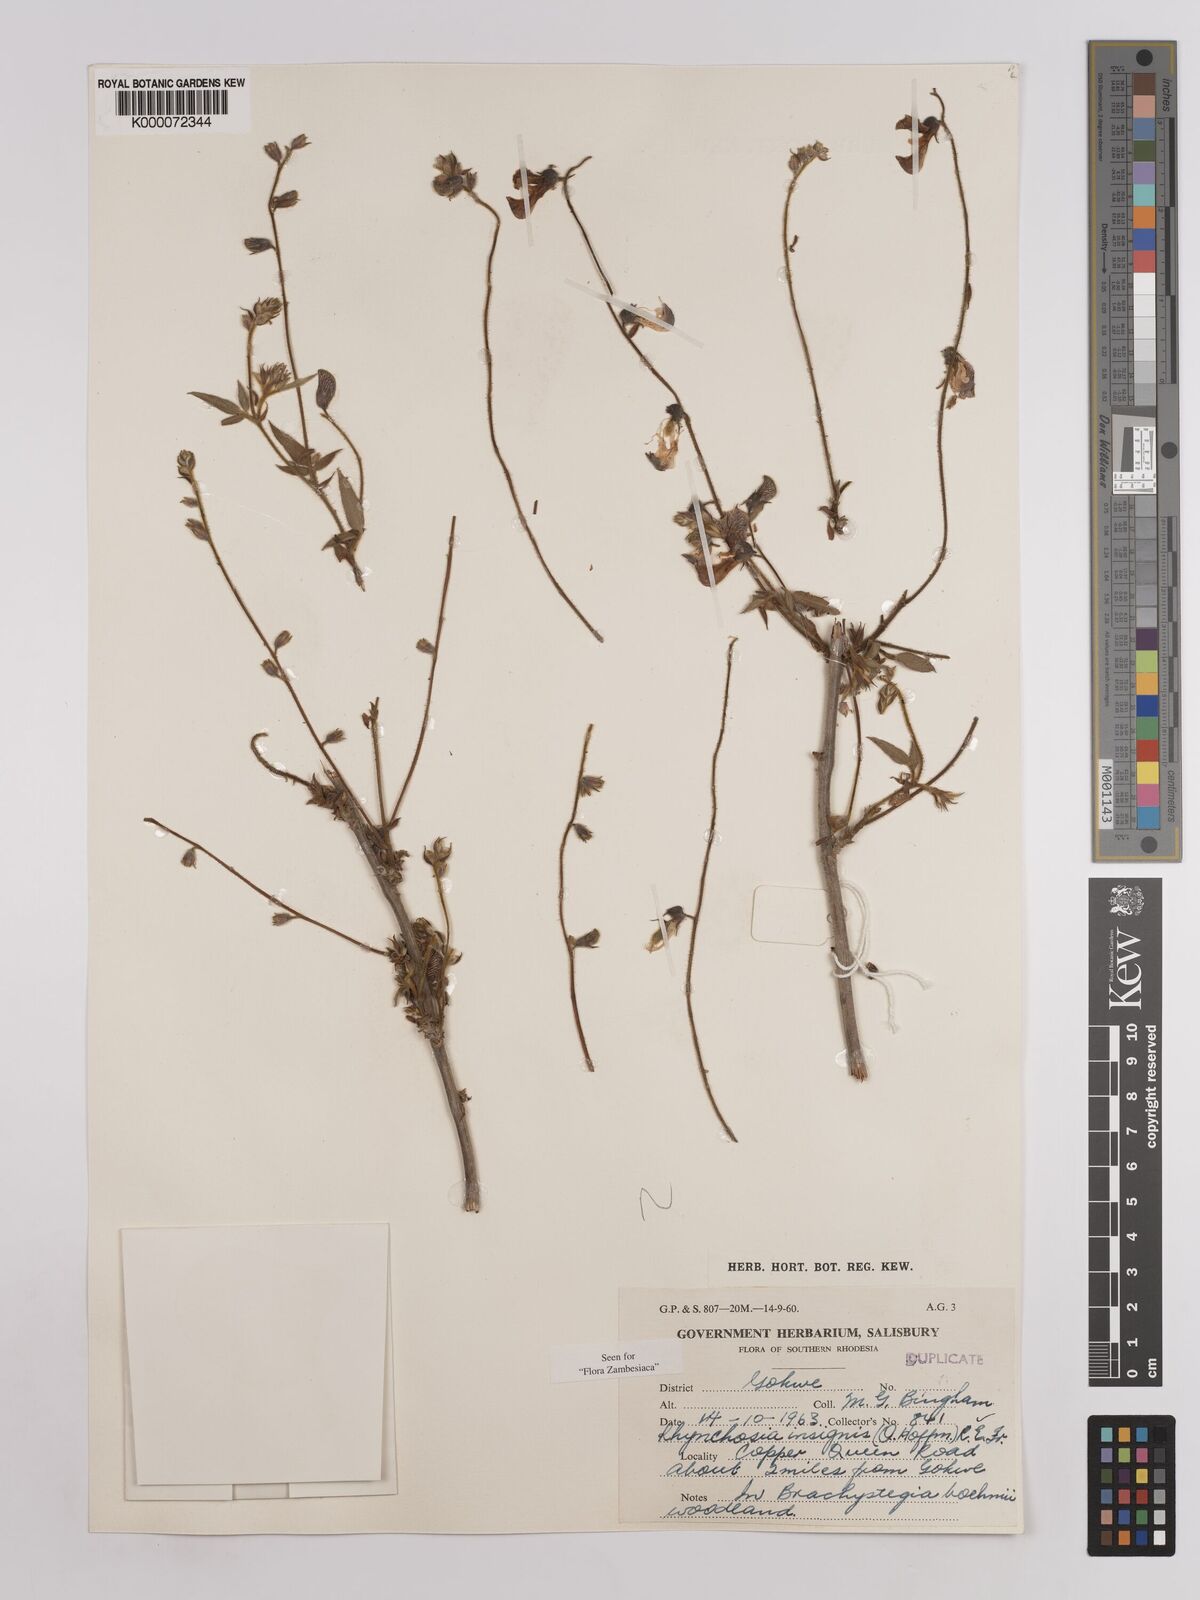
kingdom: Plantae
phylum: Tracheophyta
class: Magnoliopsida
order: Fabales
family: Fabaceae
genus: Rhynchosia
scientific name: Rhynchosia insignis
